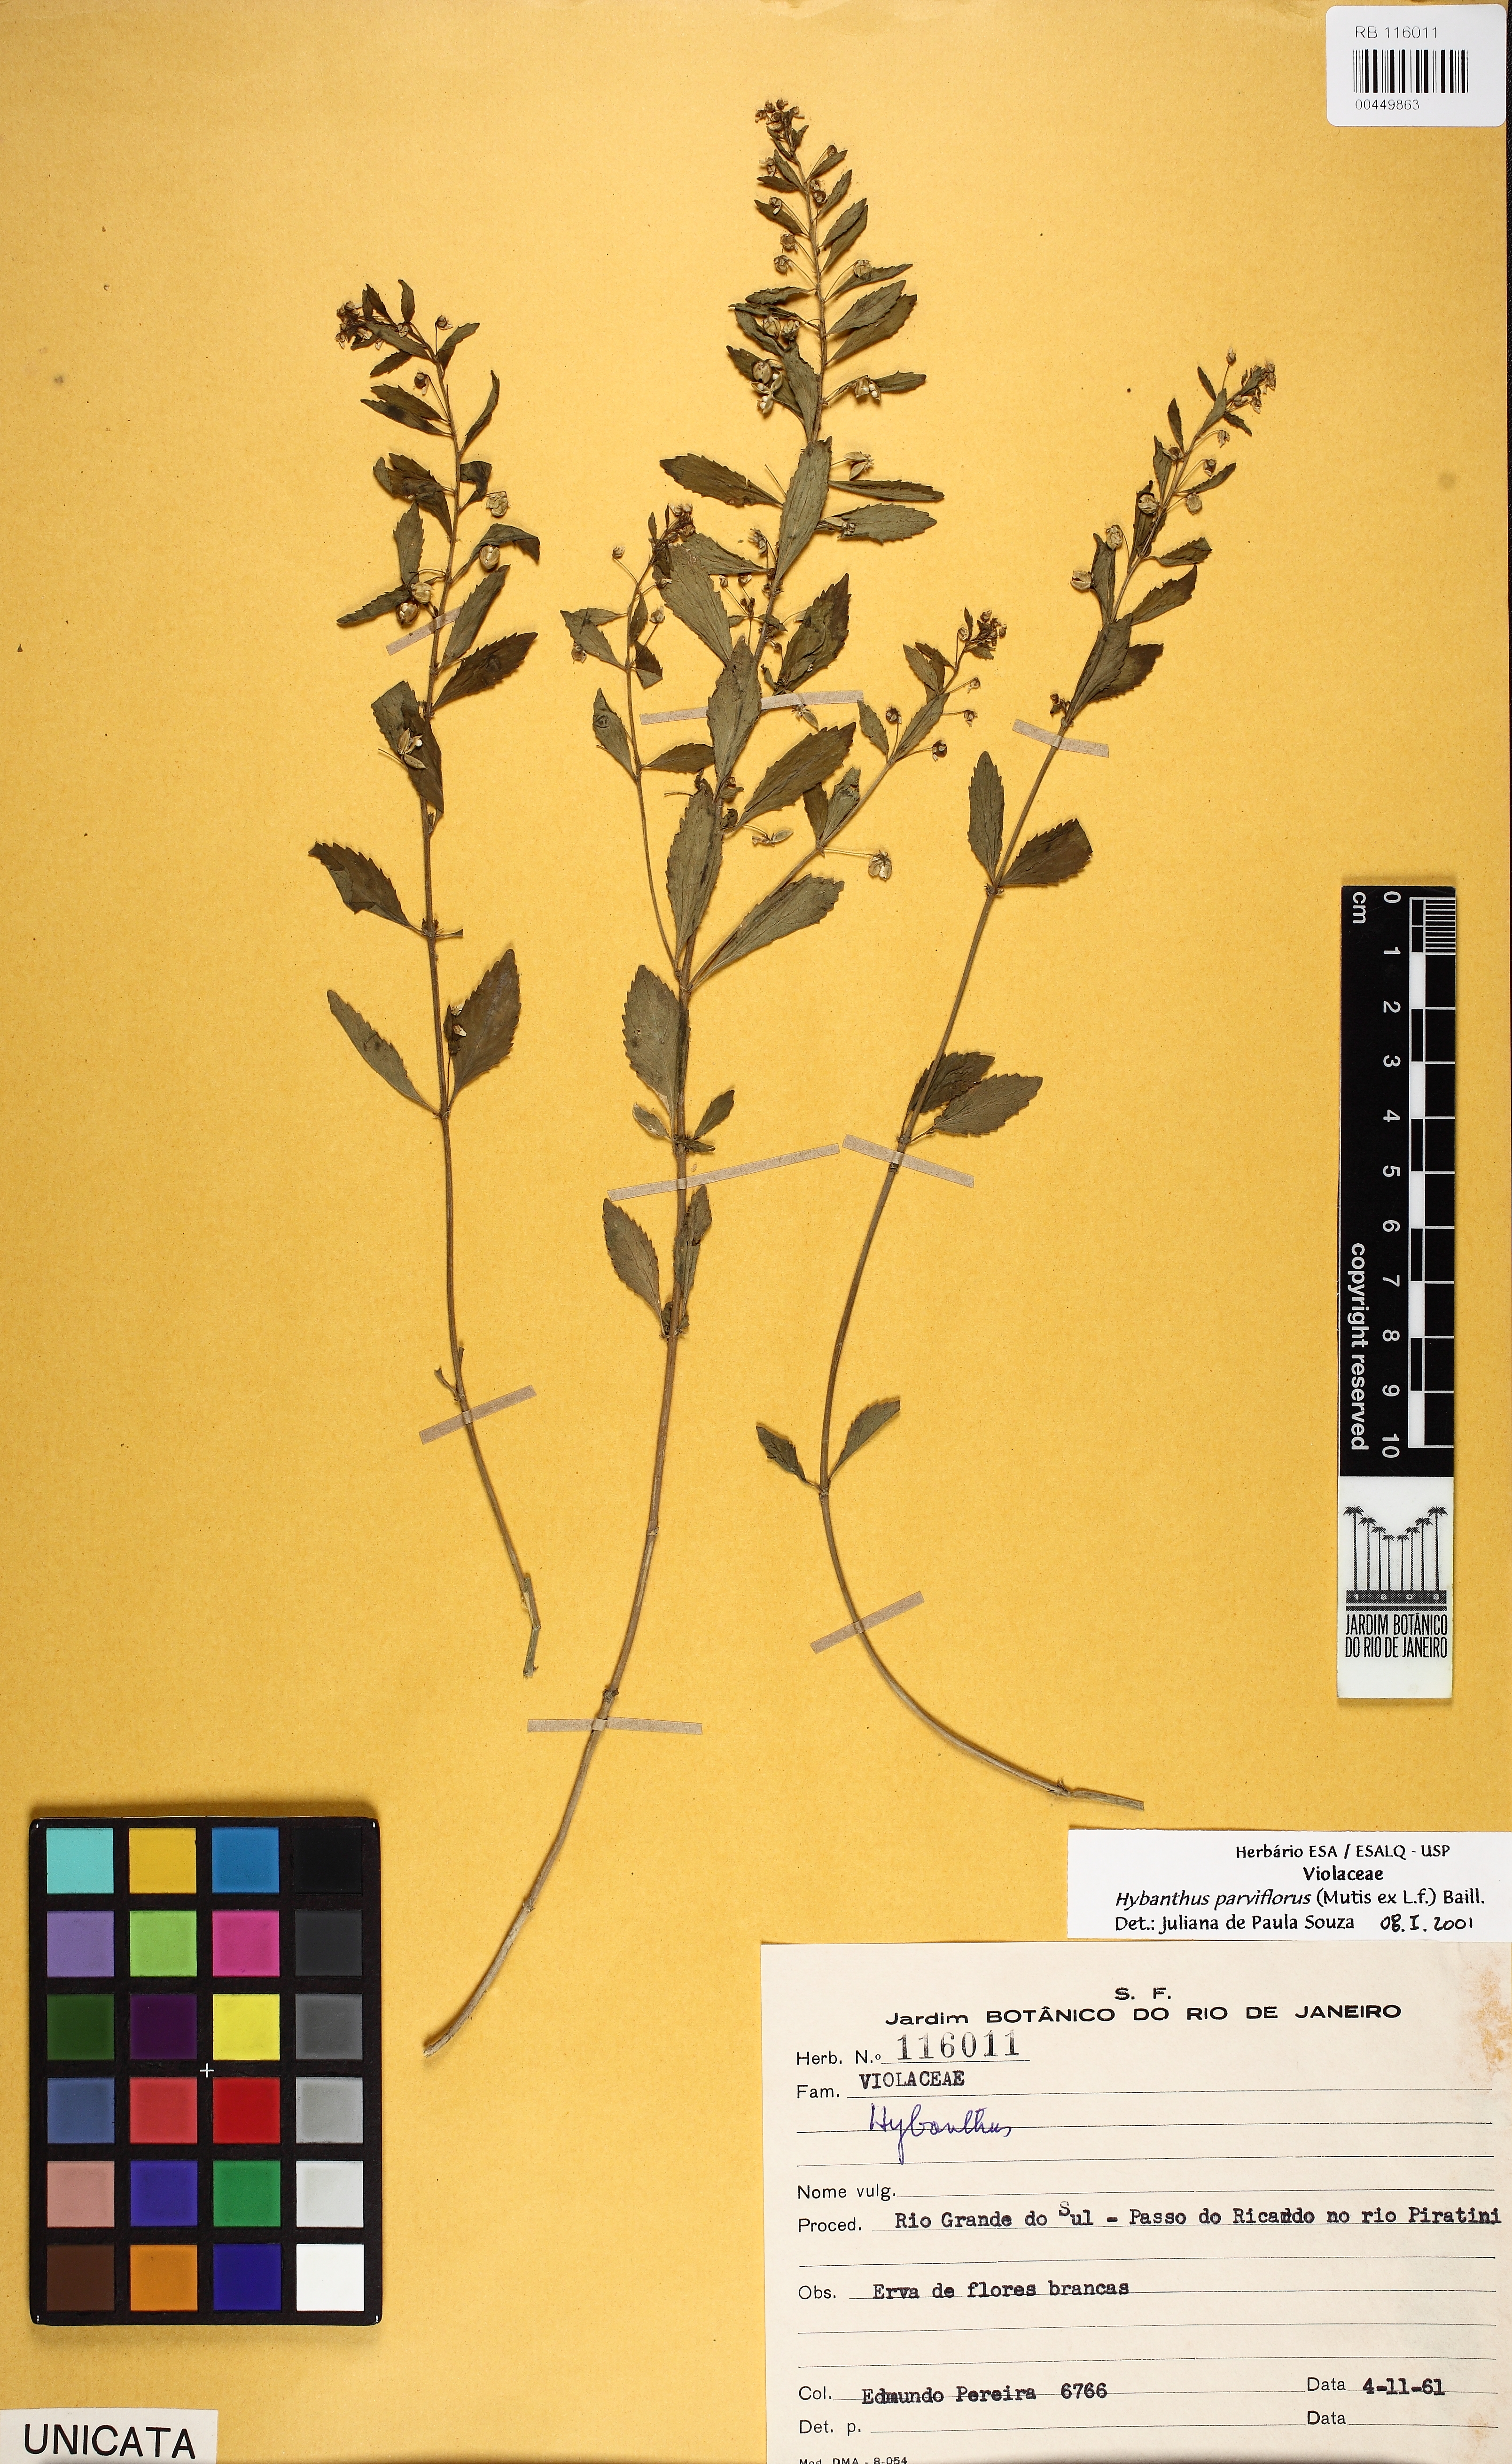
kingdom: Plantae
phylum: Tracheophyta
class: Magnoliopsida
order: Malpighiales
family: Violaceae
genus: Pombalia
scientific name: Pombalia parviflora
